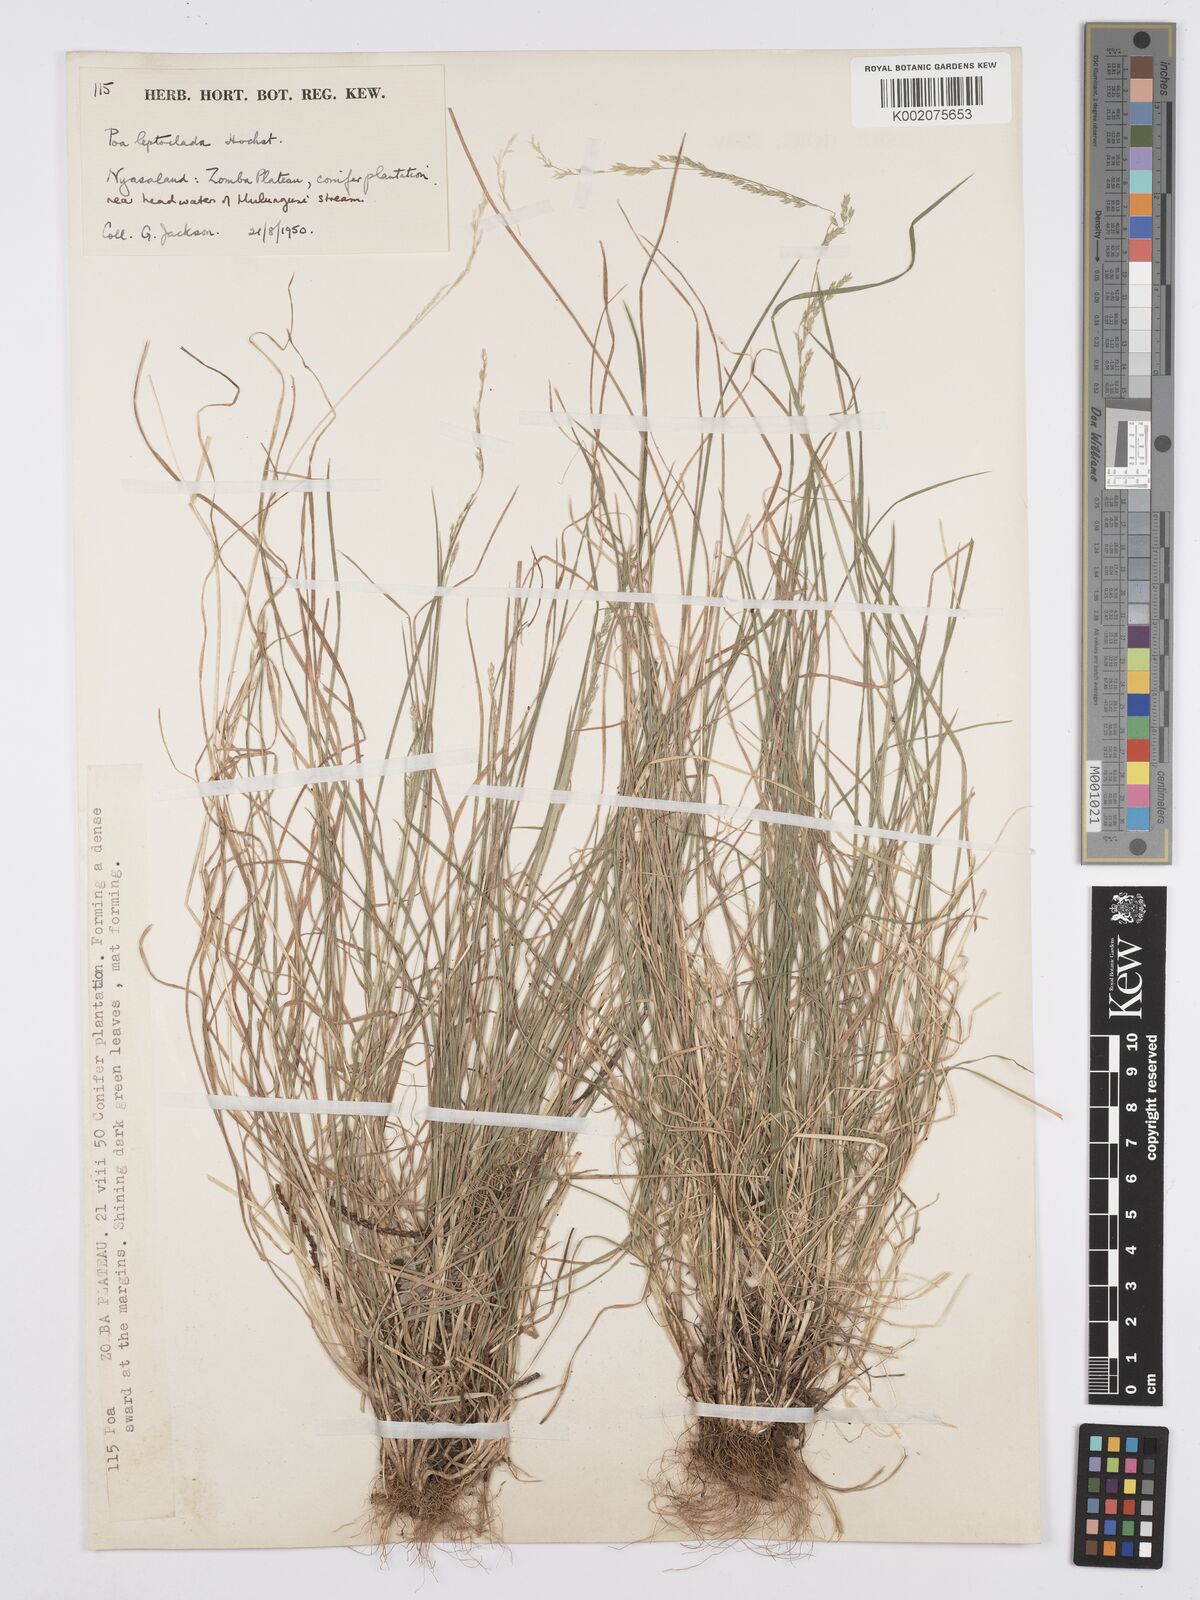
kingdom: Plantae
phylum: Tracheophyta
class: Liliopsida
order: Poales
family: Poaceae
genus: Poa
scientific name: Poa leptoclada
